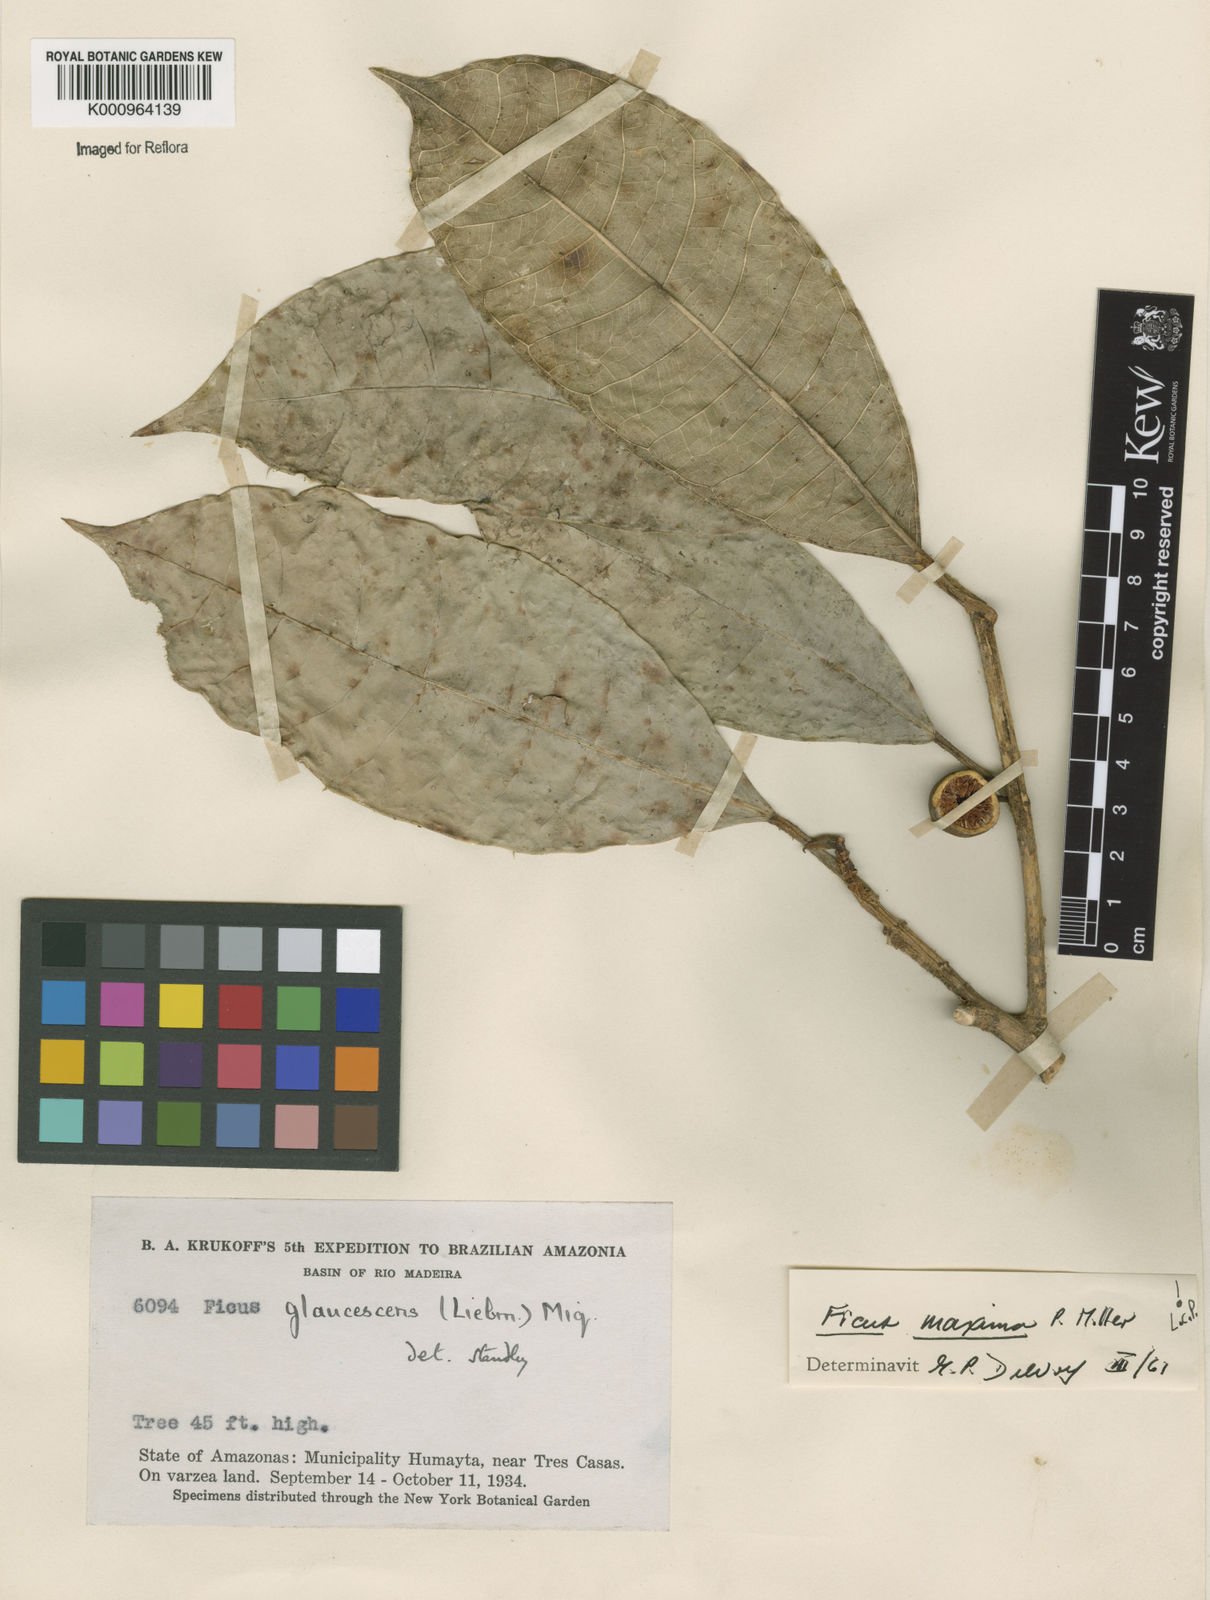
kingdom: Plantae
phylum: Tracheophyta
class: Magnoliopsida
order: Rosales
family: Moraceae
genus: Ficus
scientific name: Ficus maxima
